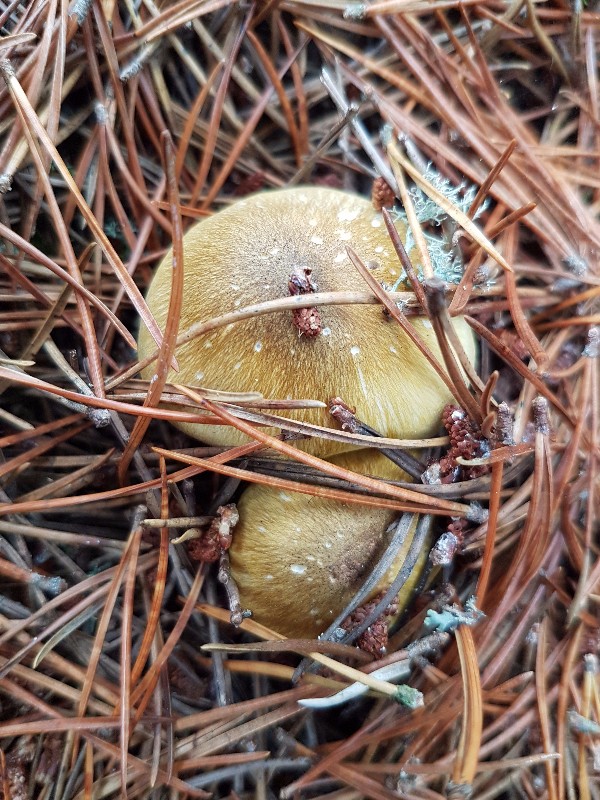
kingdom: Fungi
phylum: Basidiomycota
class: Agaricomycetes
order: Agaricales
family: Tricholomataceae
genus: Tricholoma
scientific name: Tricholoma arvernense
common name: kantet ridderhat
